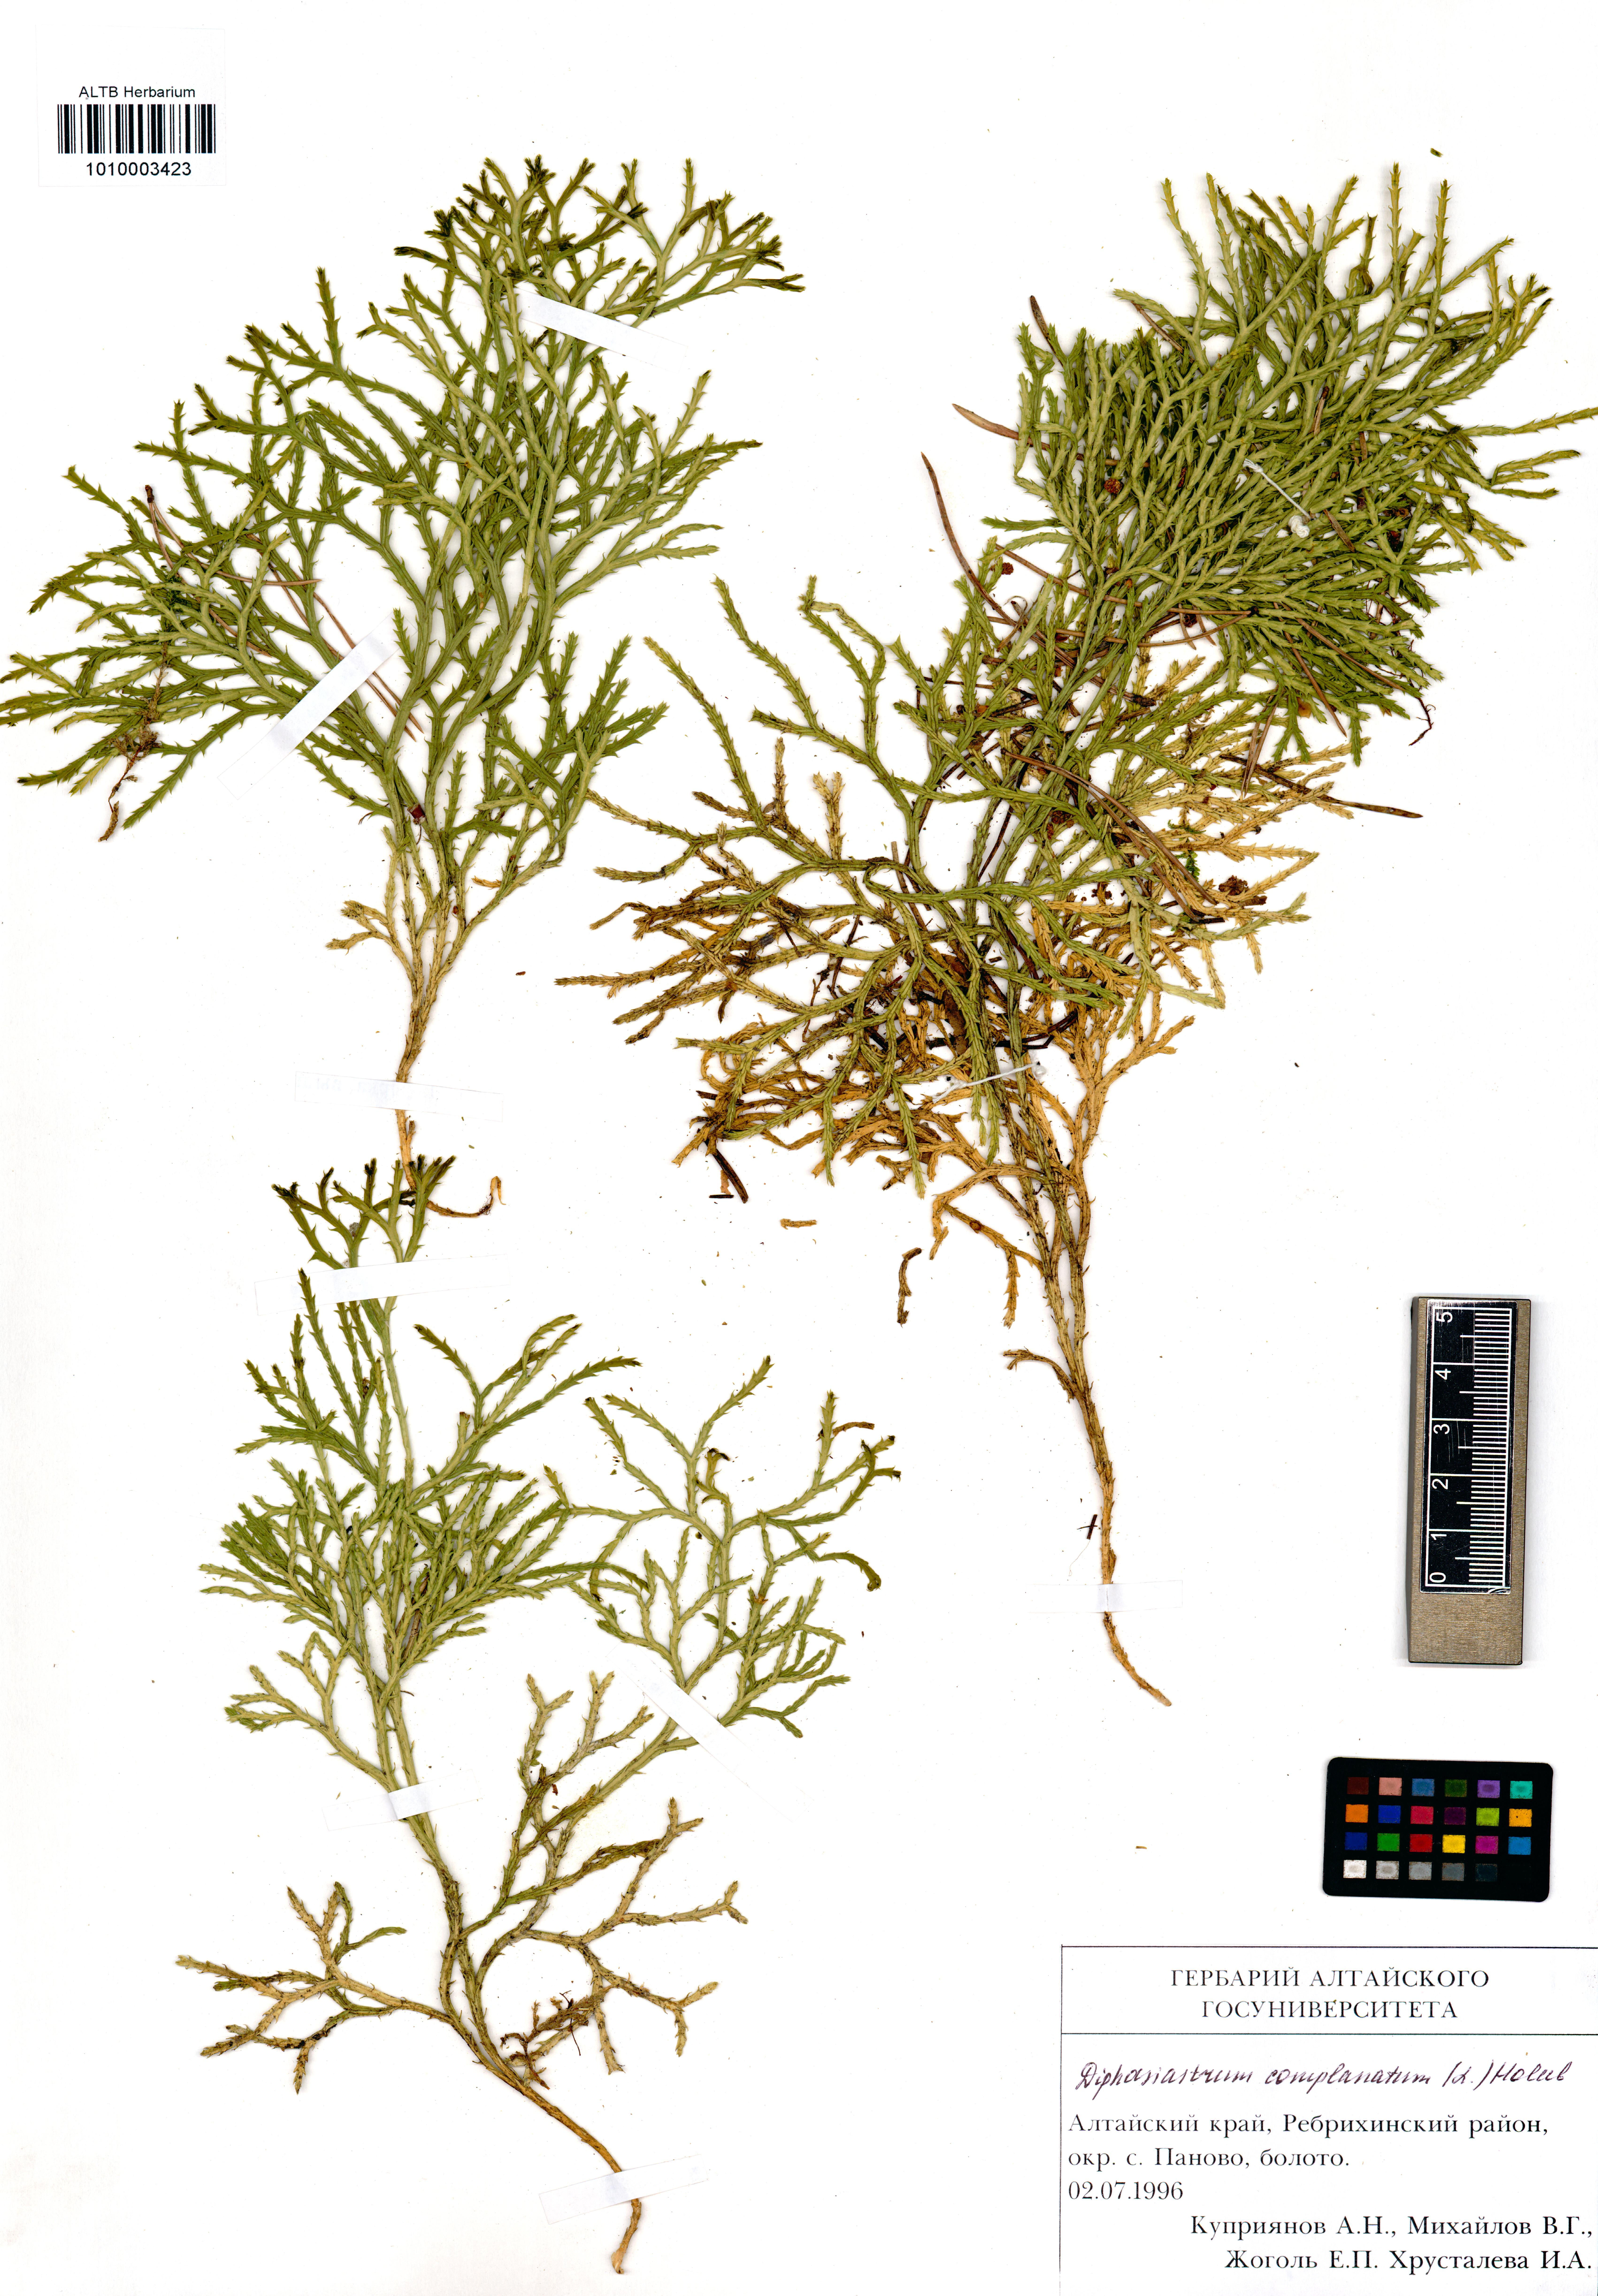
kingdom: Plantae
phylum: Tracheophyta
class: Lycopodiopsida
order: Lycopodiales
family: Lycopodiaceae
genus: Diphasiastrum
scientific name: Diphasiastrum complanatum
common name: Northern running-pine
